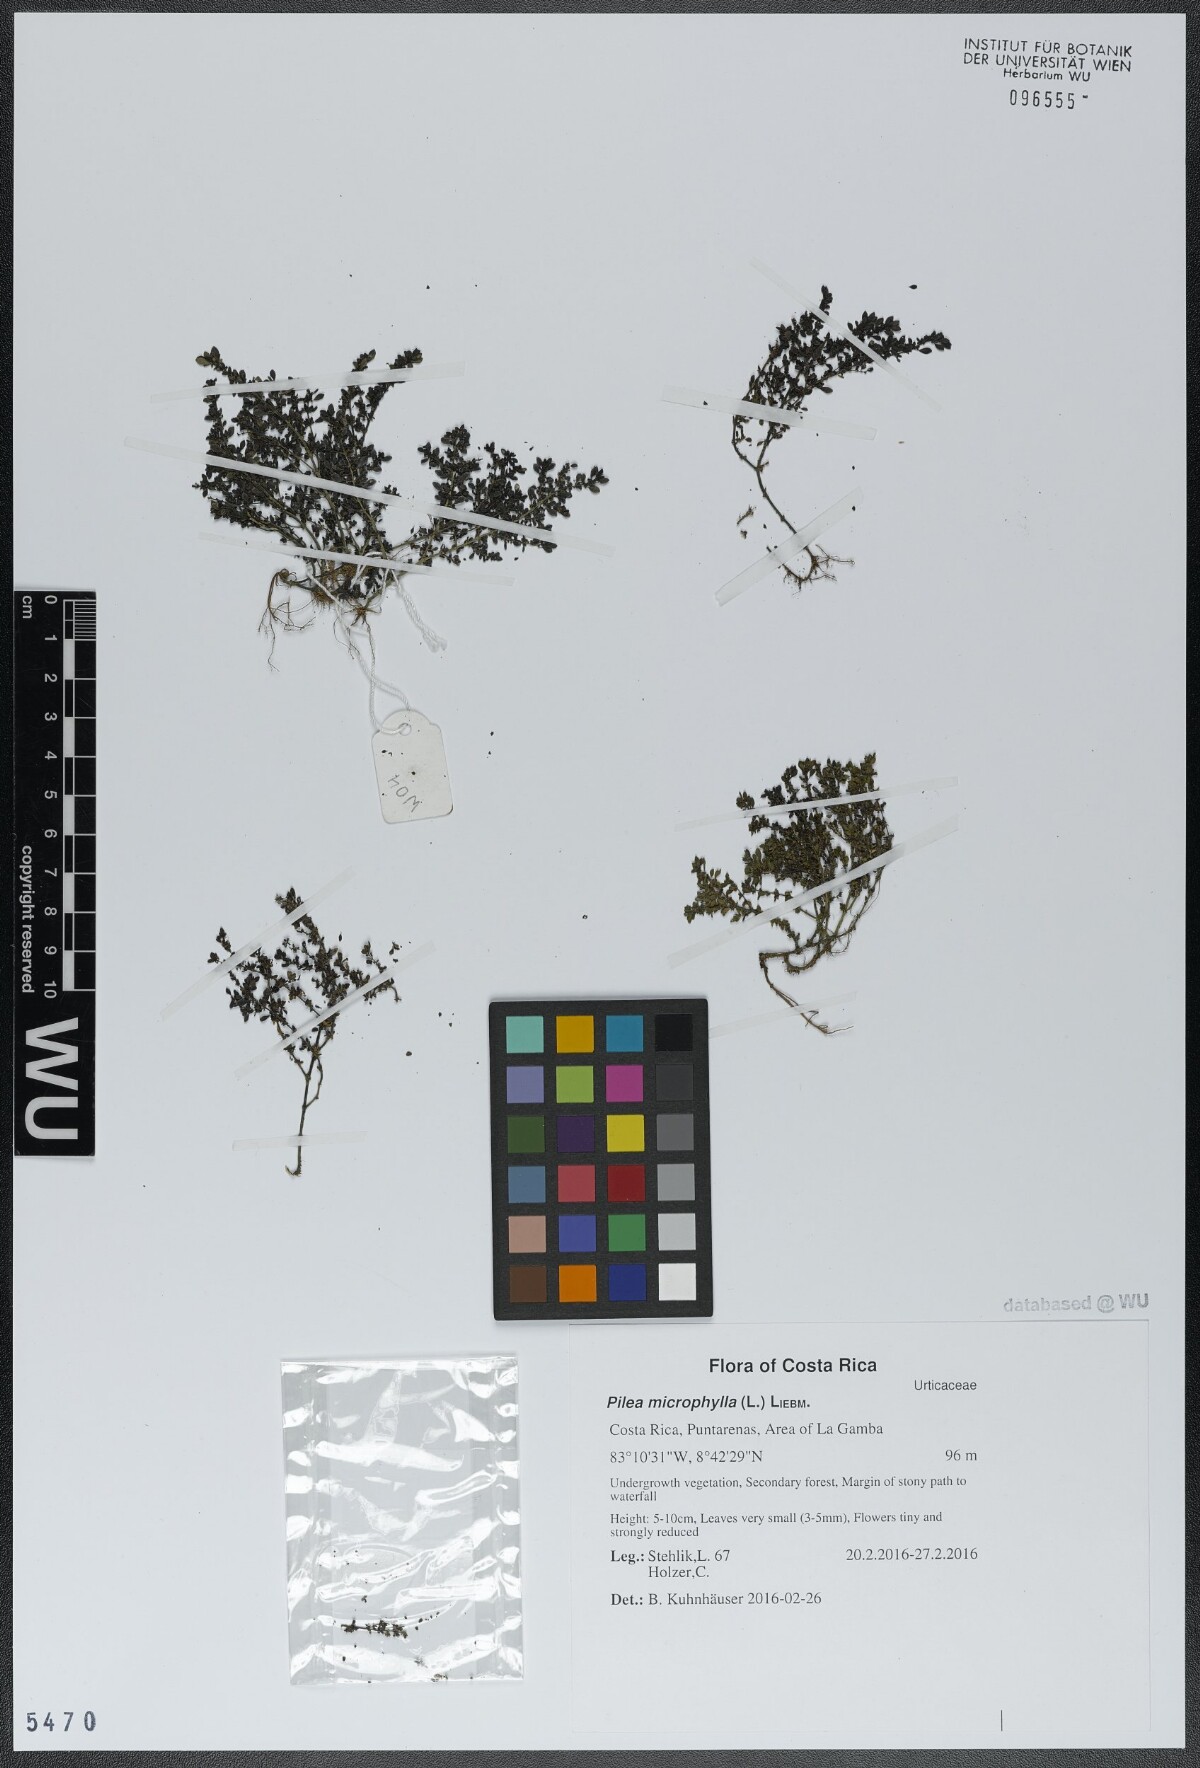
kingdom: Plantae
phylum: Tracheophyta
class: Magnoliopsida
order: Rosales
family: Urticaceae
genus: Pilea
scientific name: Pilea microphylla
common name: Artillery-plant
